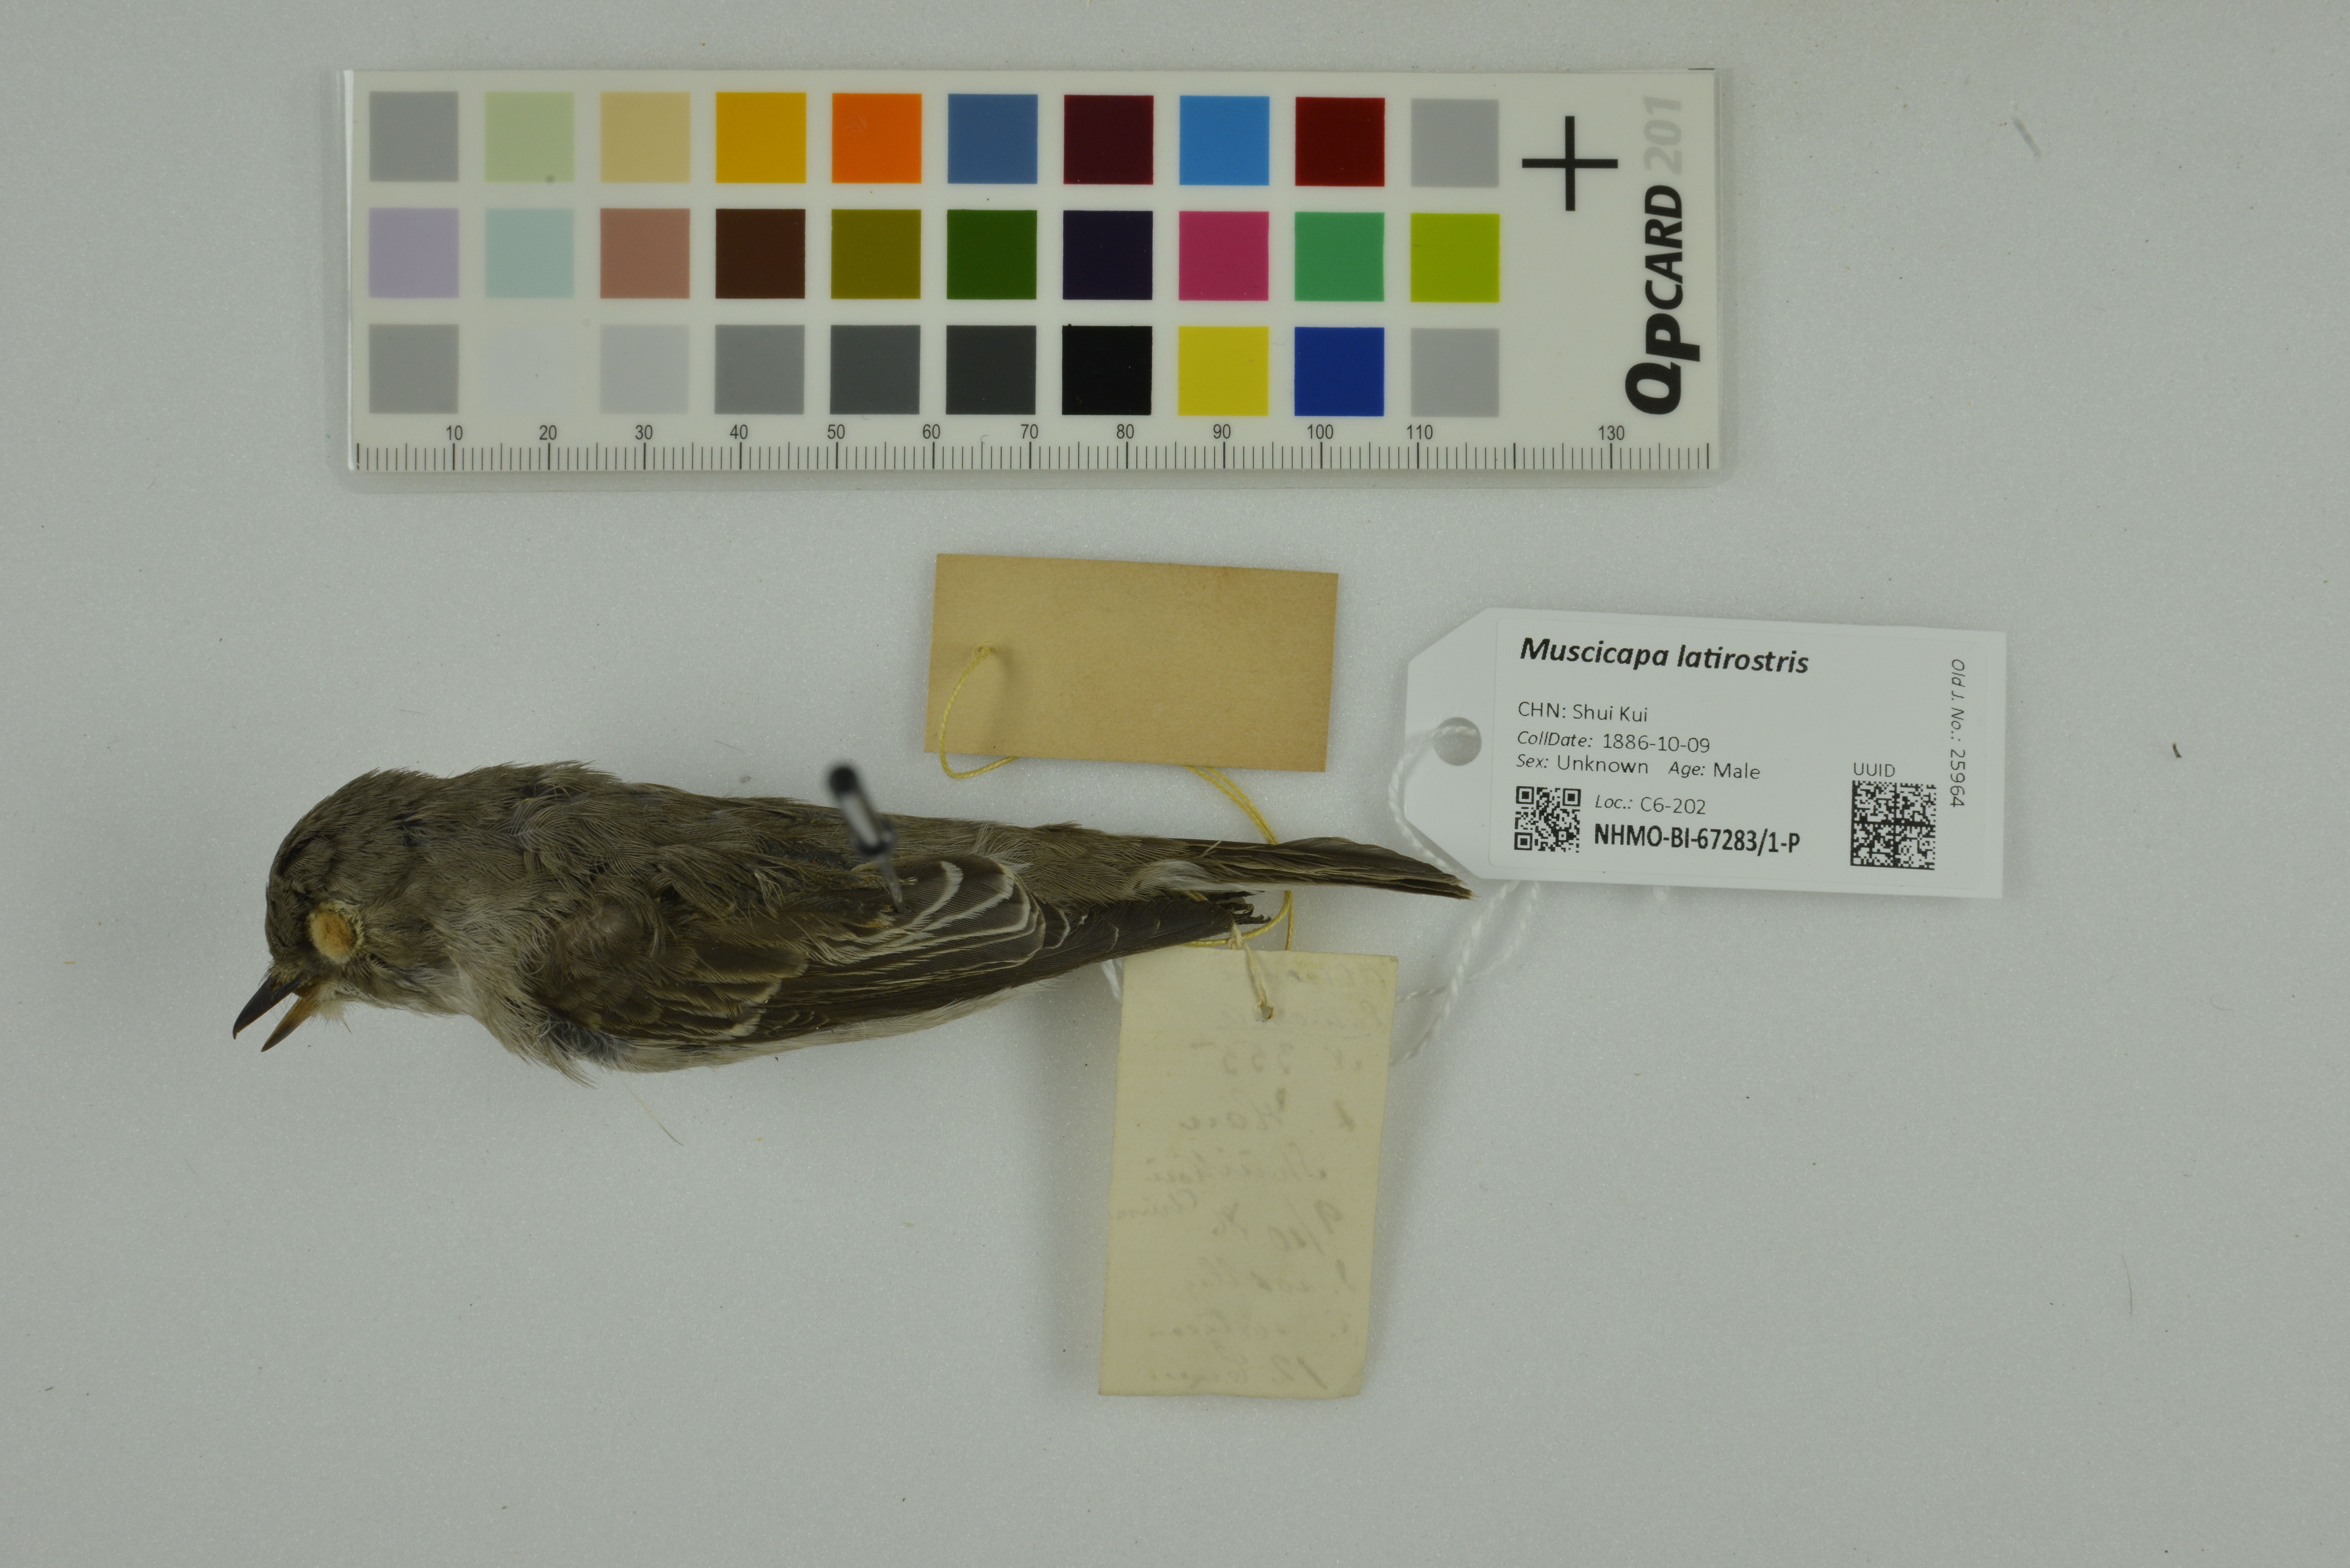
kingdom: Animalia
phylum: Chordata
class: Aves
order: Passeriformes
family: Muscicapidae
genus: Muscicapa
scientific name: Muscicapa latirostris
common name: Asian brown flycatcher
